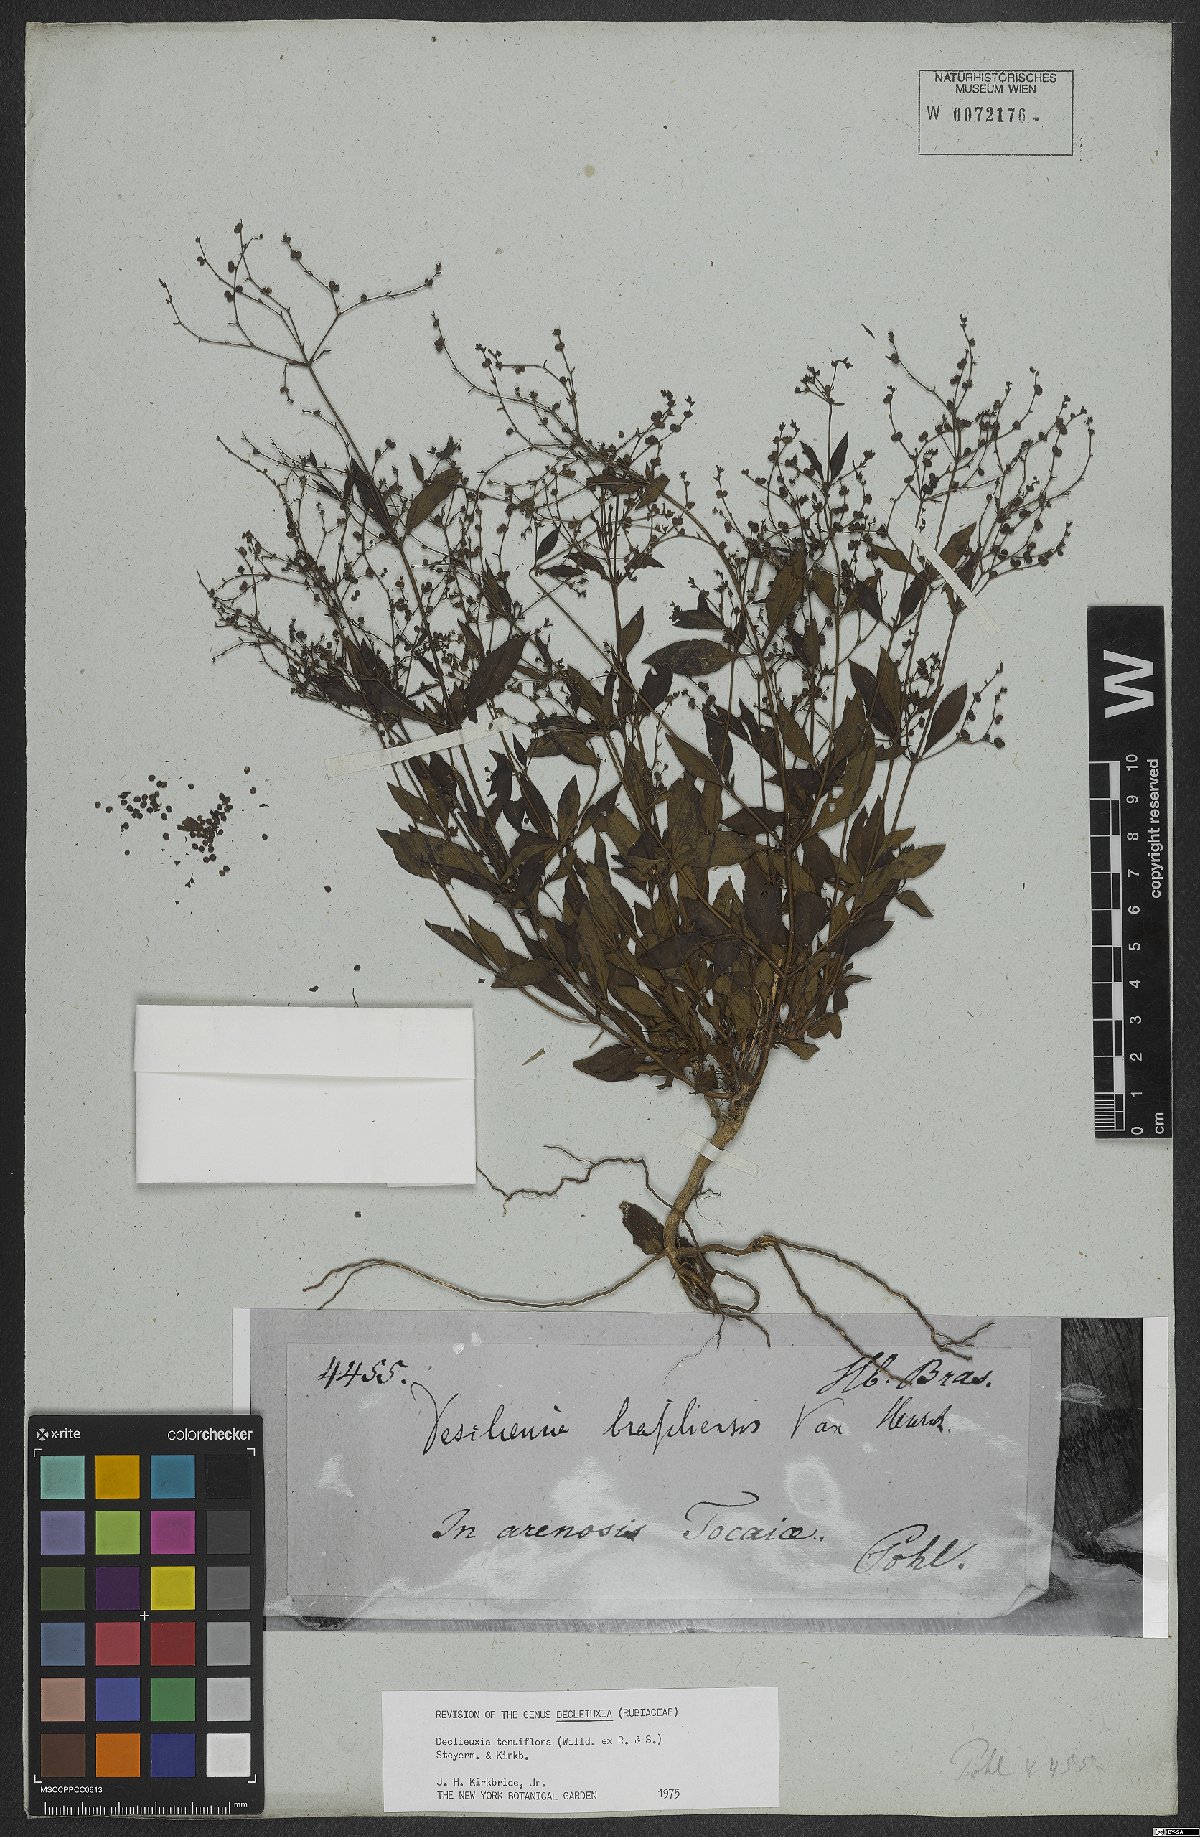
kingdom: Plantae
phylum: Tracheophyta
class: Magnoliopsida
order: Gentianales
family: Rubiaceae
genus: Declieuxia
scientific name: Declieuxia tenuiflora
